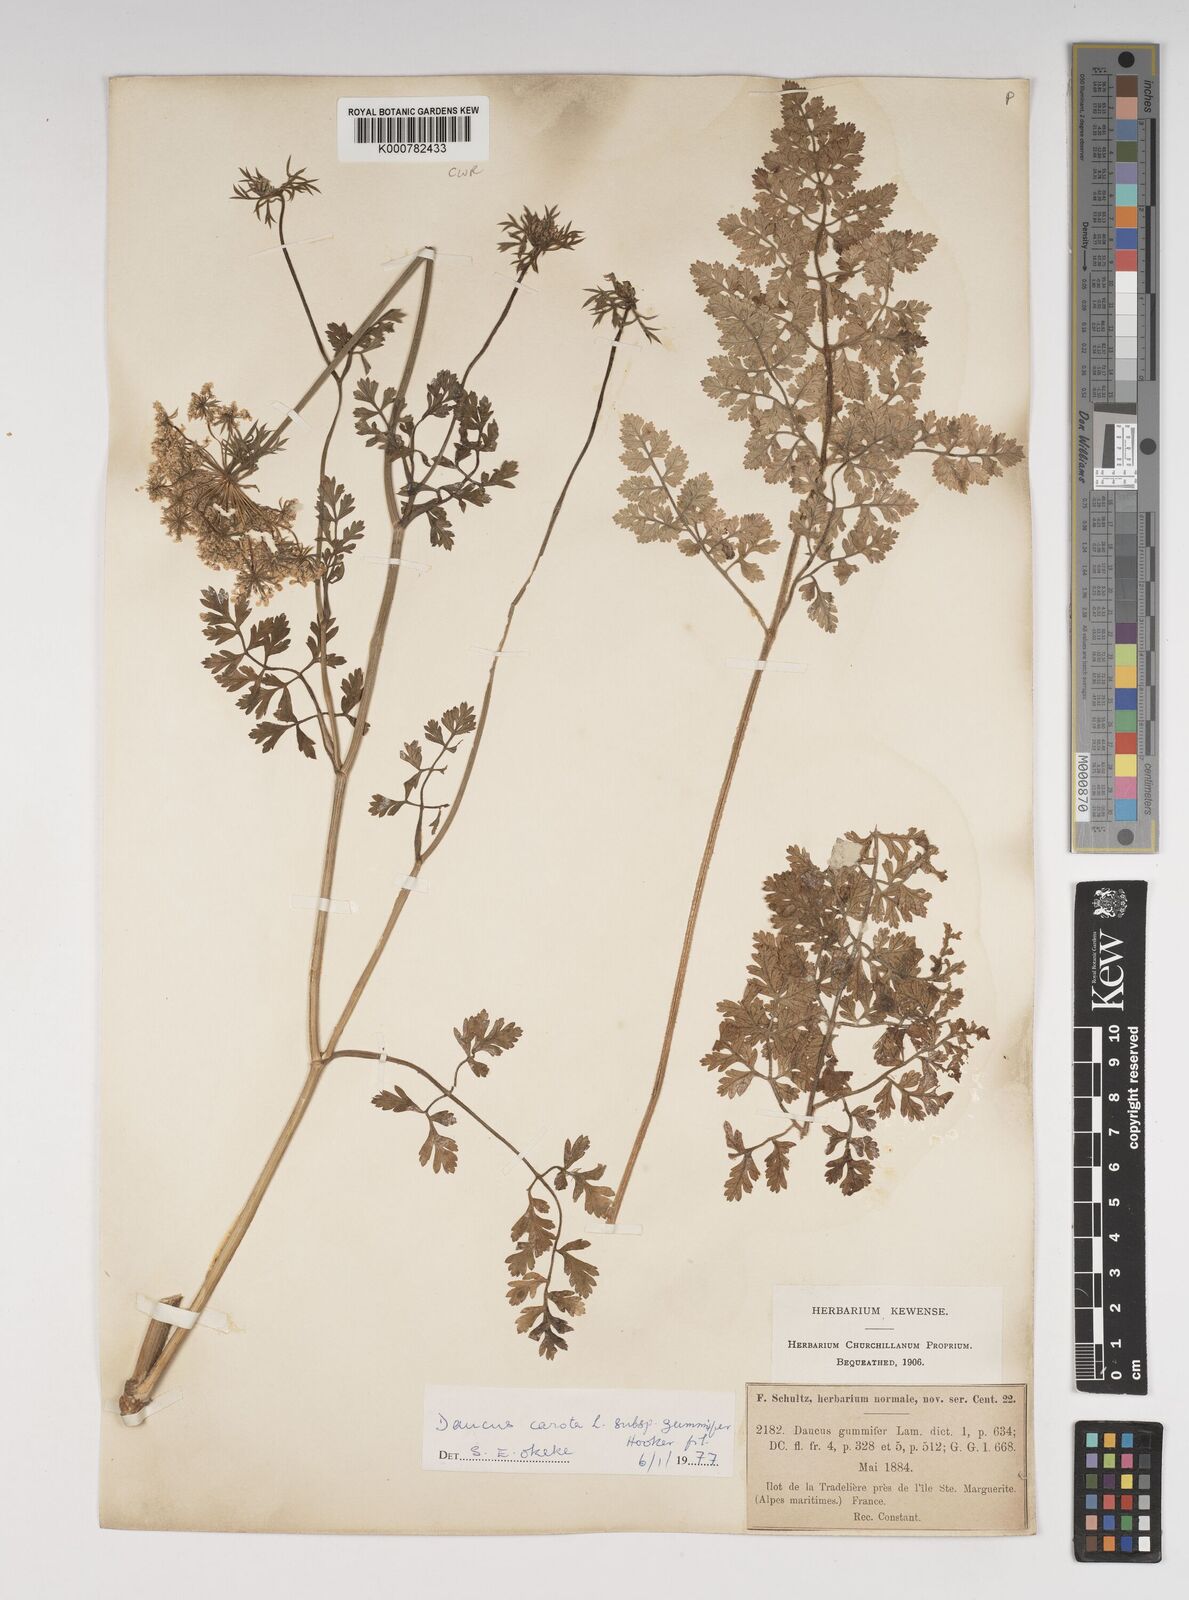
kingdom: Plantae
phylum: Tracheophyta
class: Magnoliopsida
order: Apiales
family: Apiaceae
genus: Daucus
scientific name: Daucus carota
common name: Wild carrot
